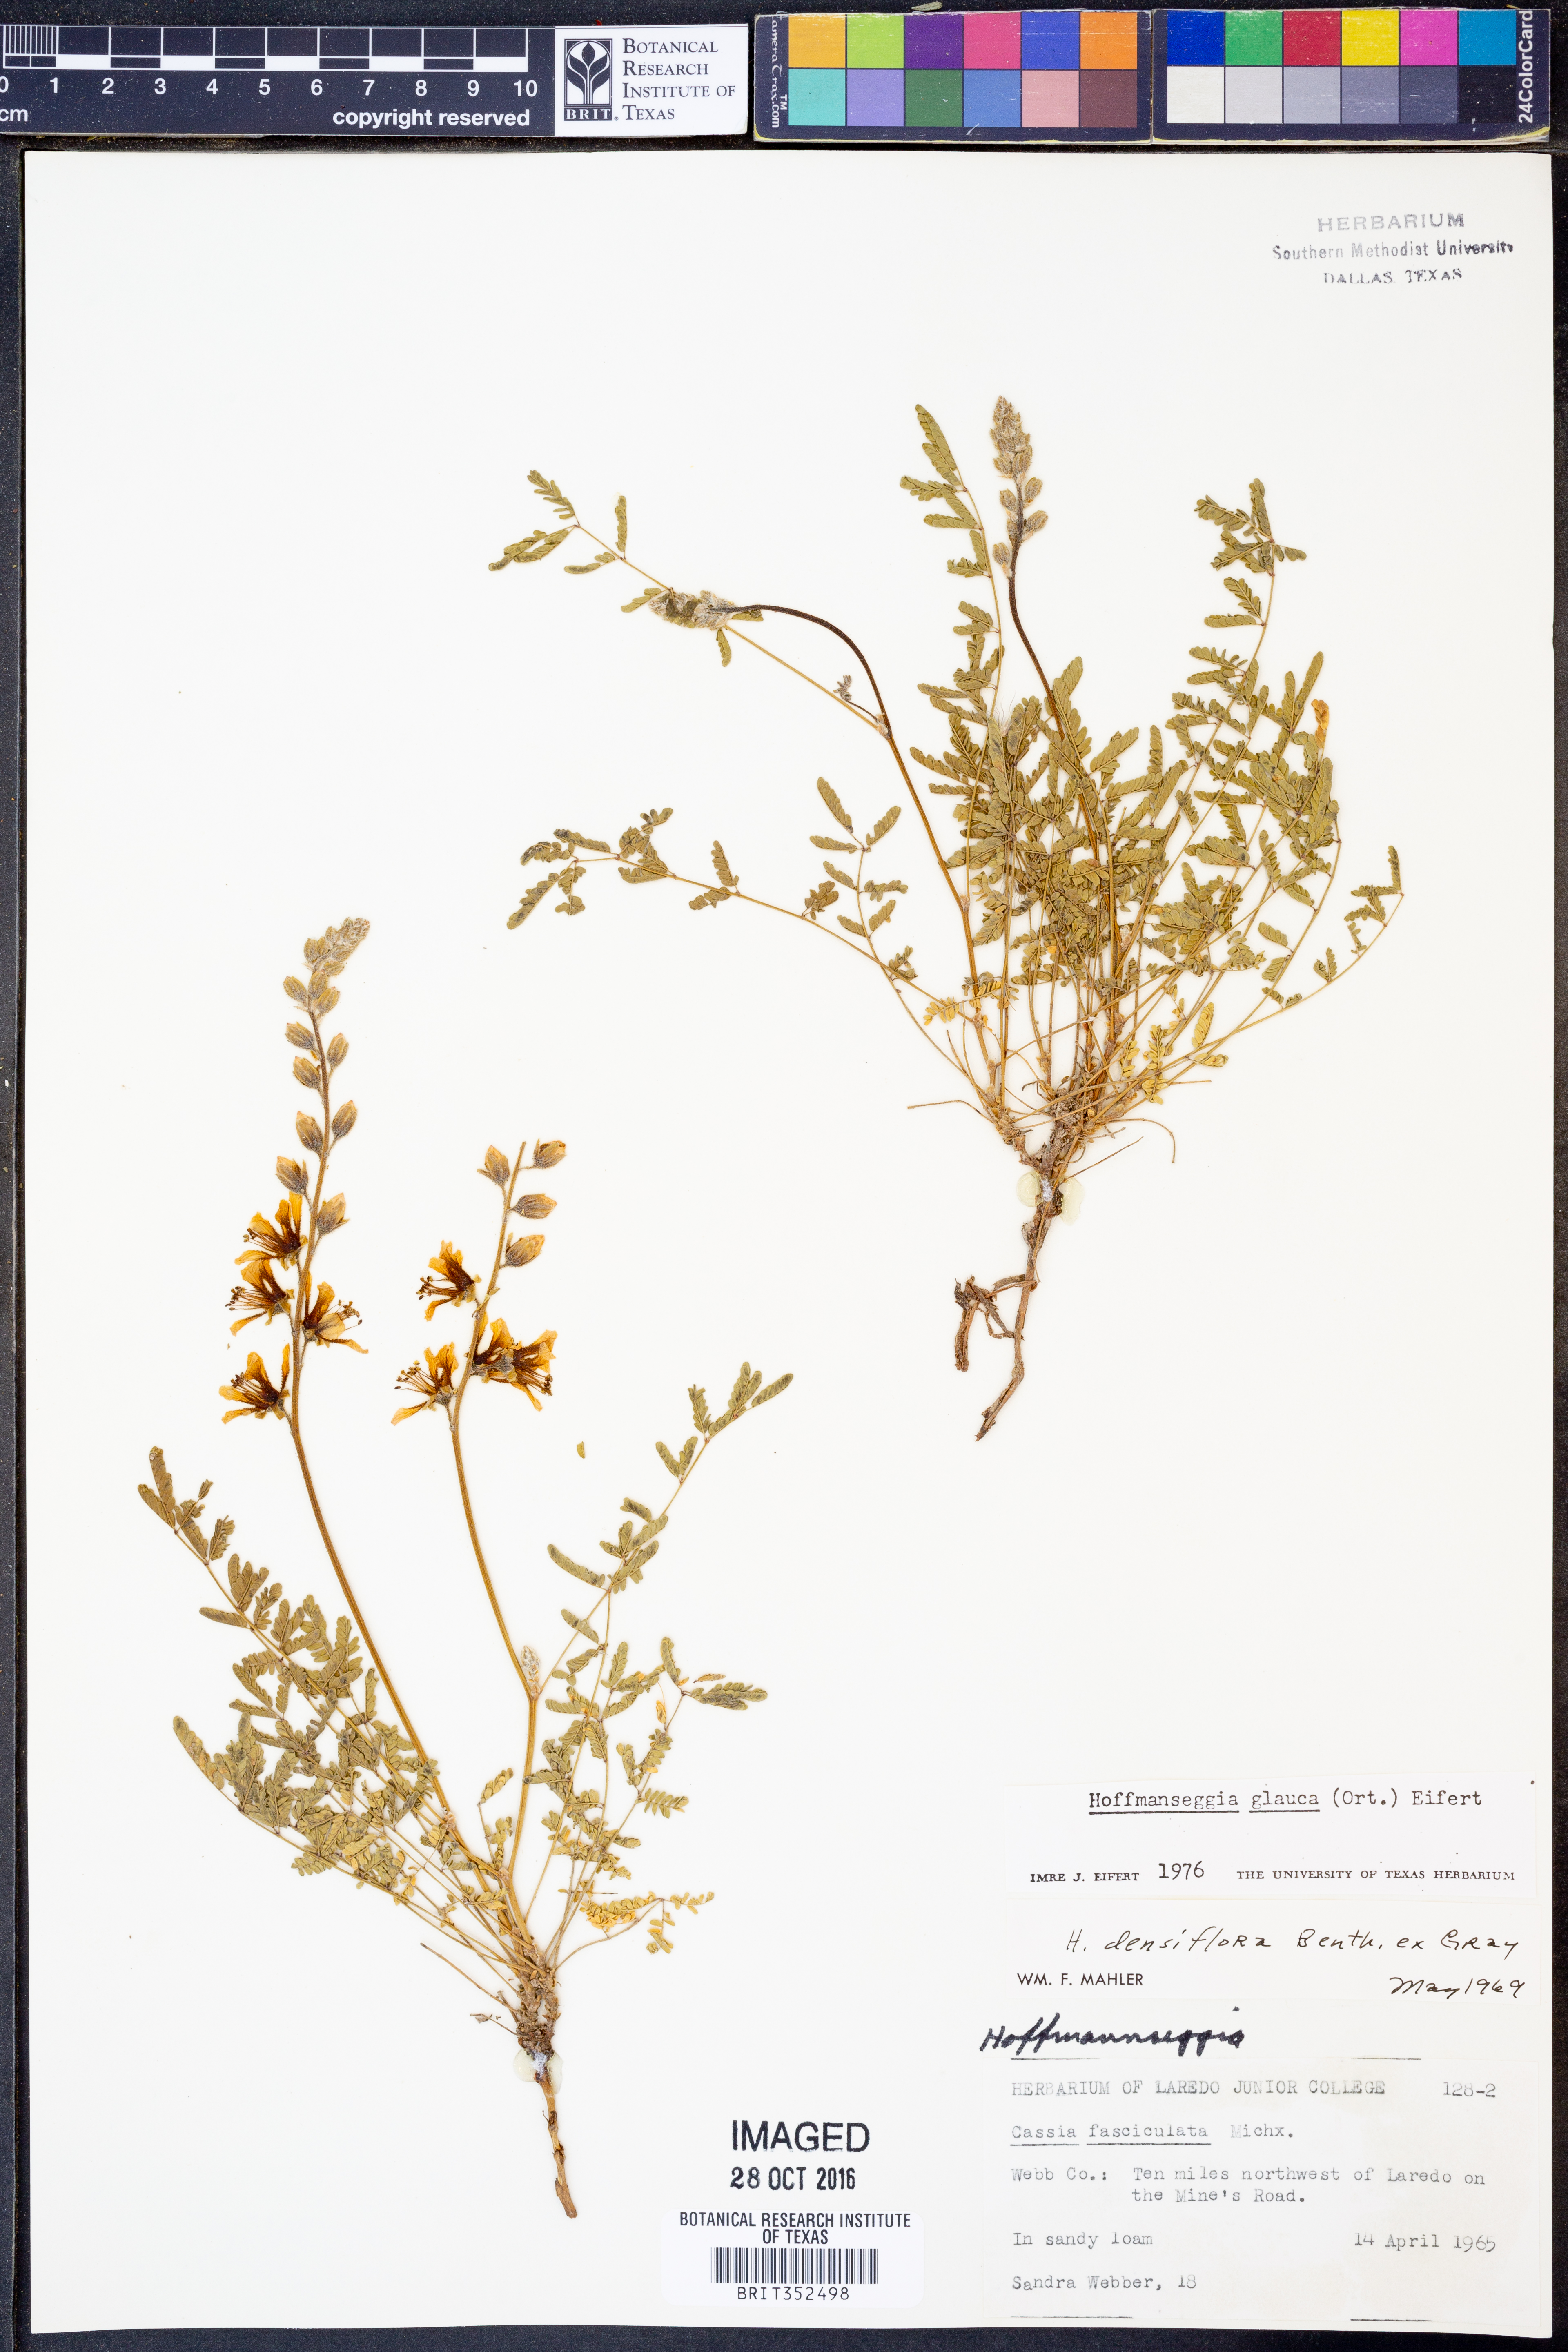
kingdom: Plantae
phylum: Tracheophyta
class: Magnoliopsida
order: Fabales
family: Fabaceae
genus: Hoffmannseggia
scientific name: Hoffmannseggia glauca
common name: Pignut
